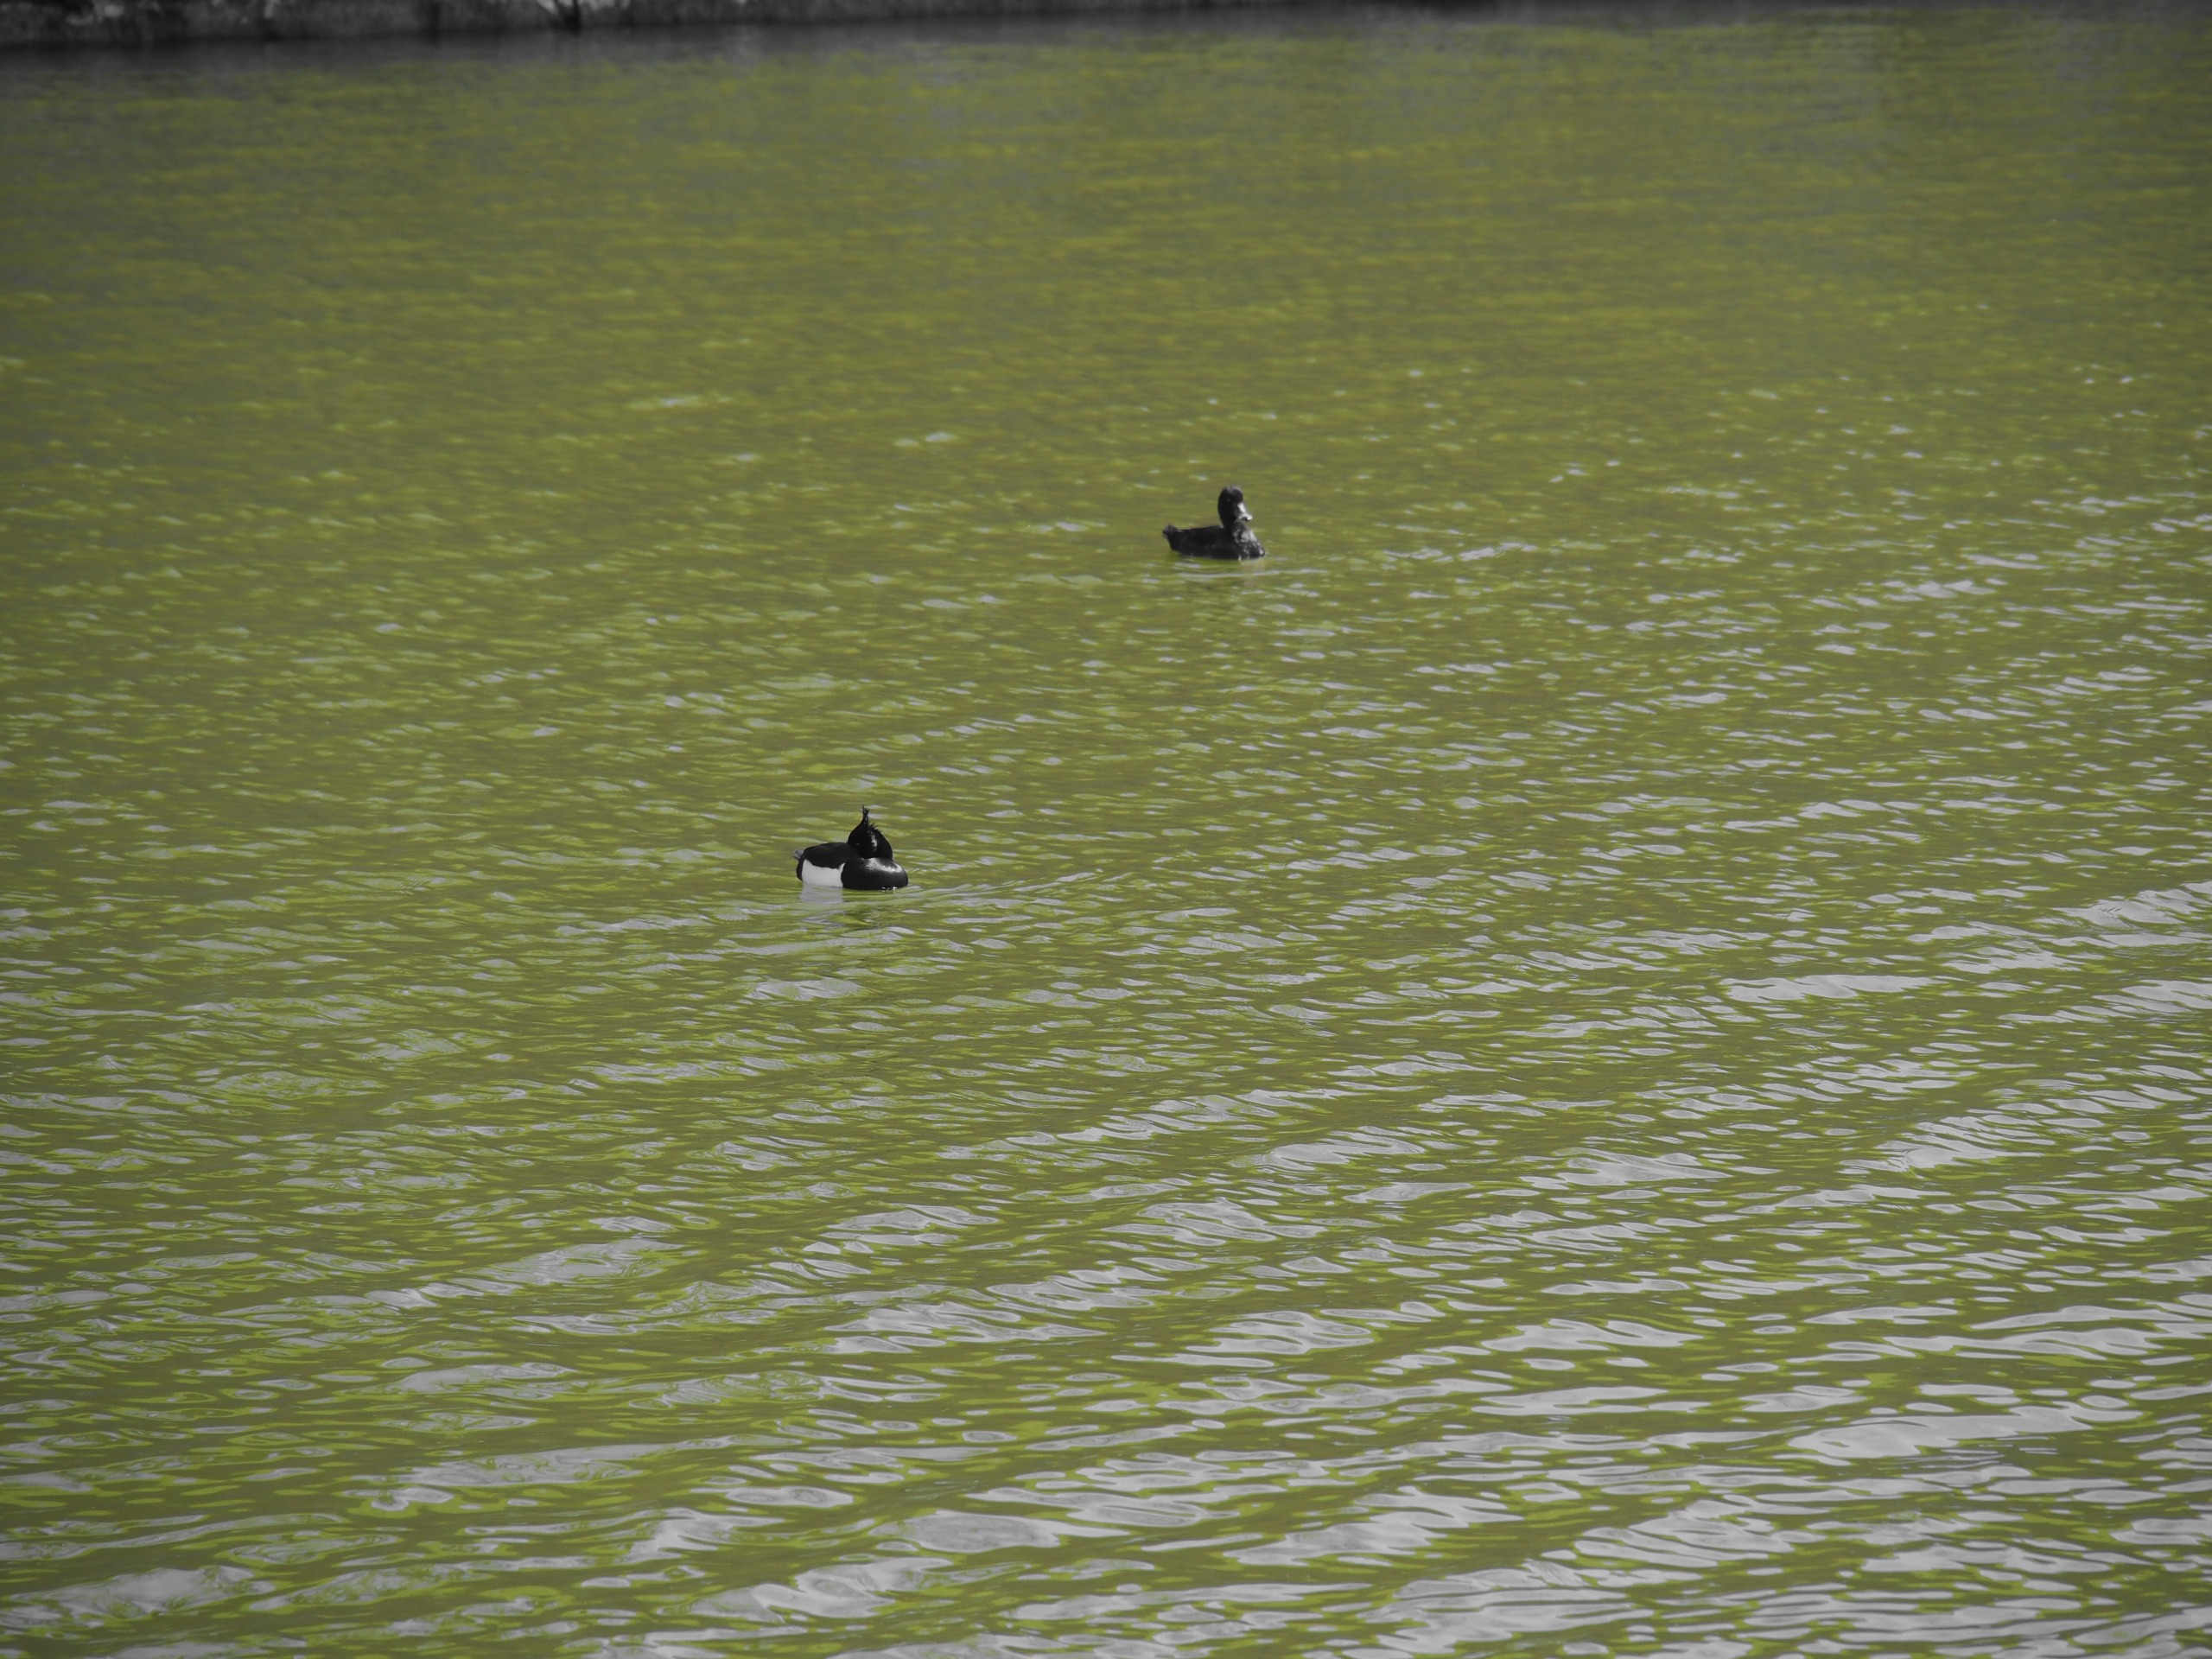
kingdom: Animalia
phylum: Chordata
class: Aves
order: Anseriformes
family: Anatidae
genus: Aythya
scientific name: Aythya fuligula
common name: Troldand
